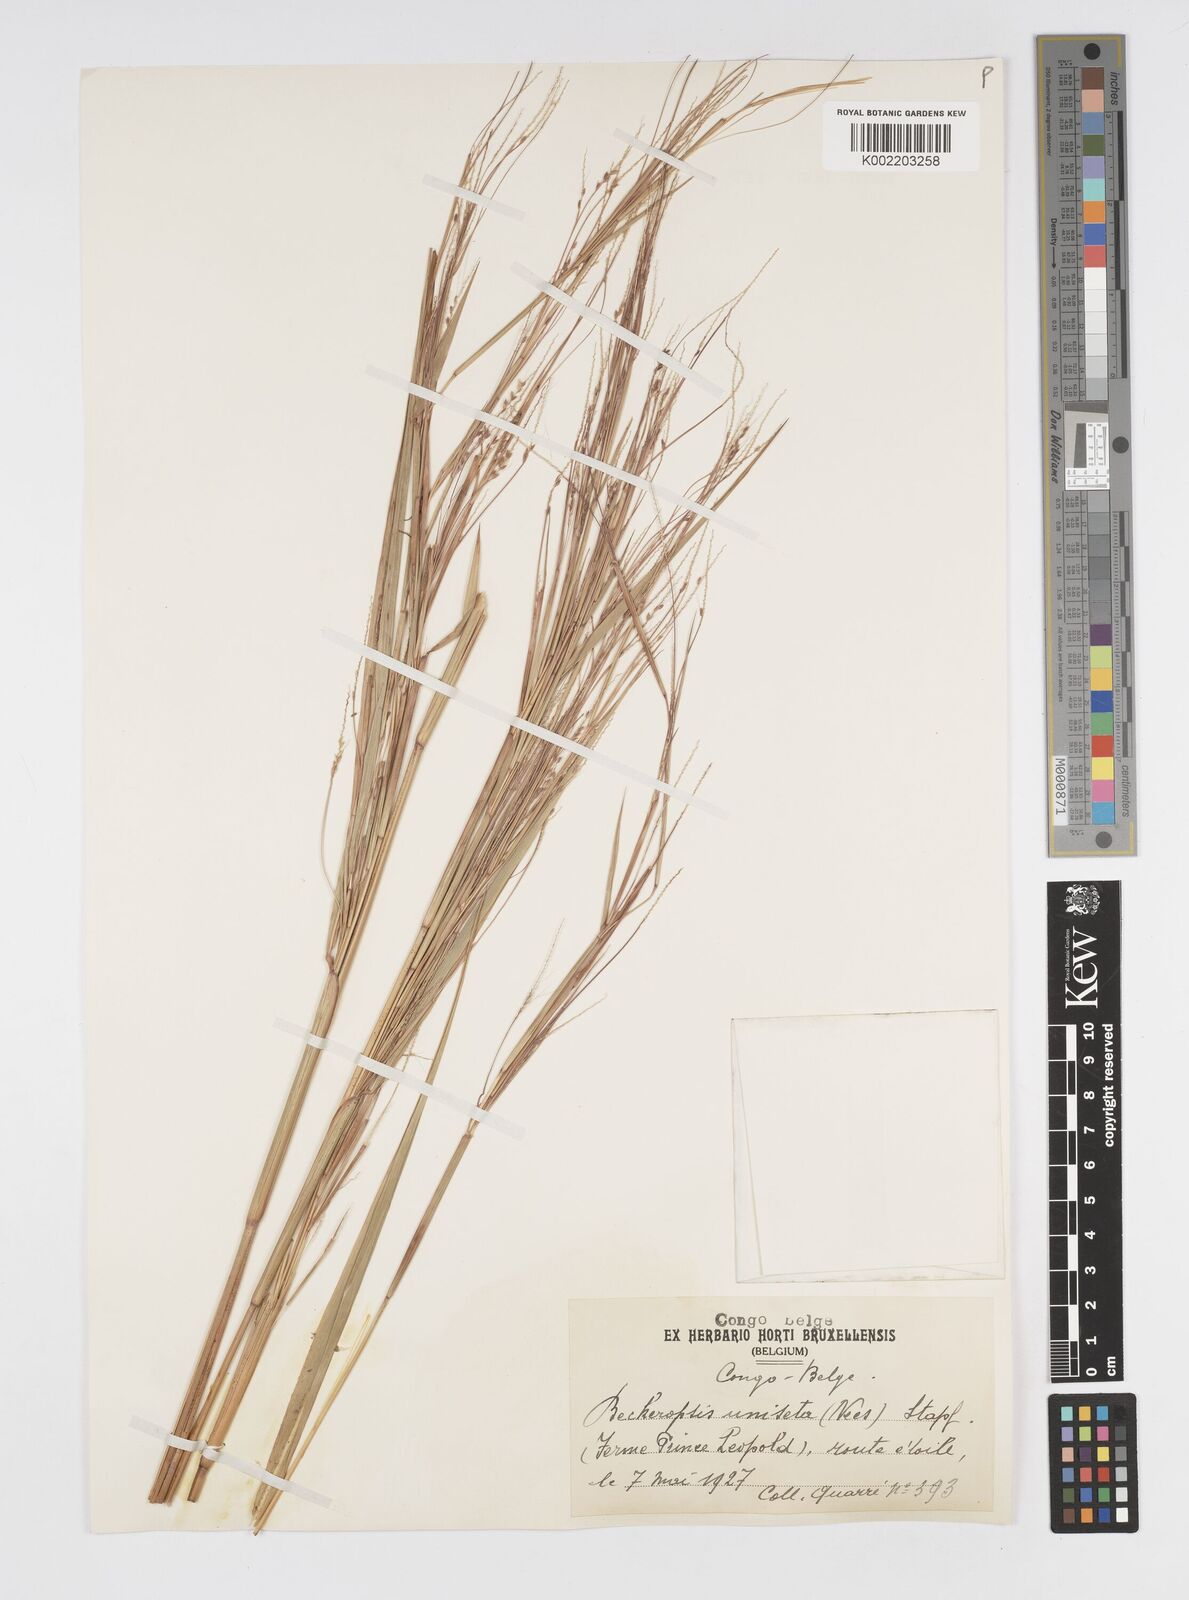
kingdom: Plantae
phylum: Tracheophyta
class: Liliopsida
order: Poales
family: Poaceae
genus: Cenchrus
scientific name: Cenchrus unisetus
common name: Natal grass
